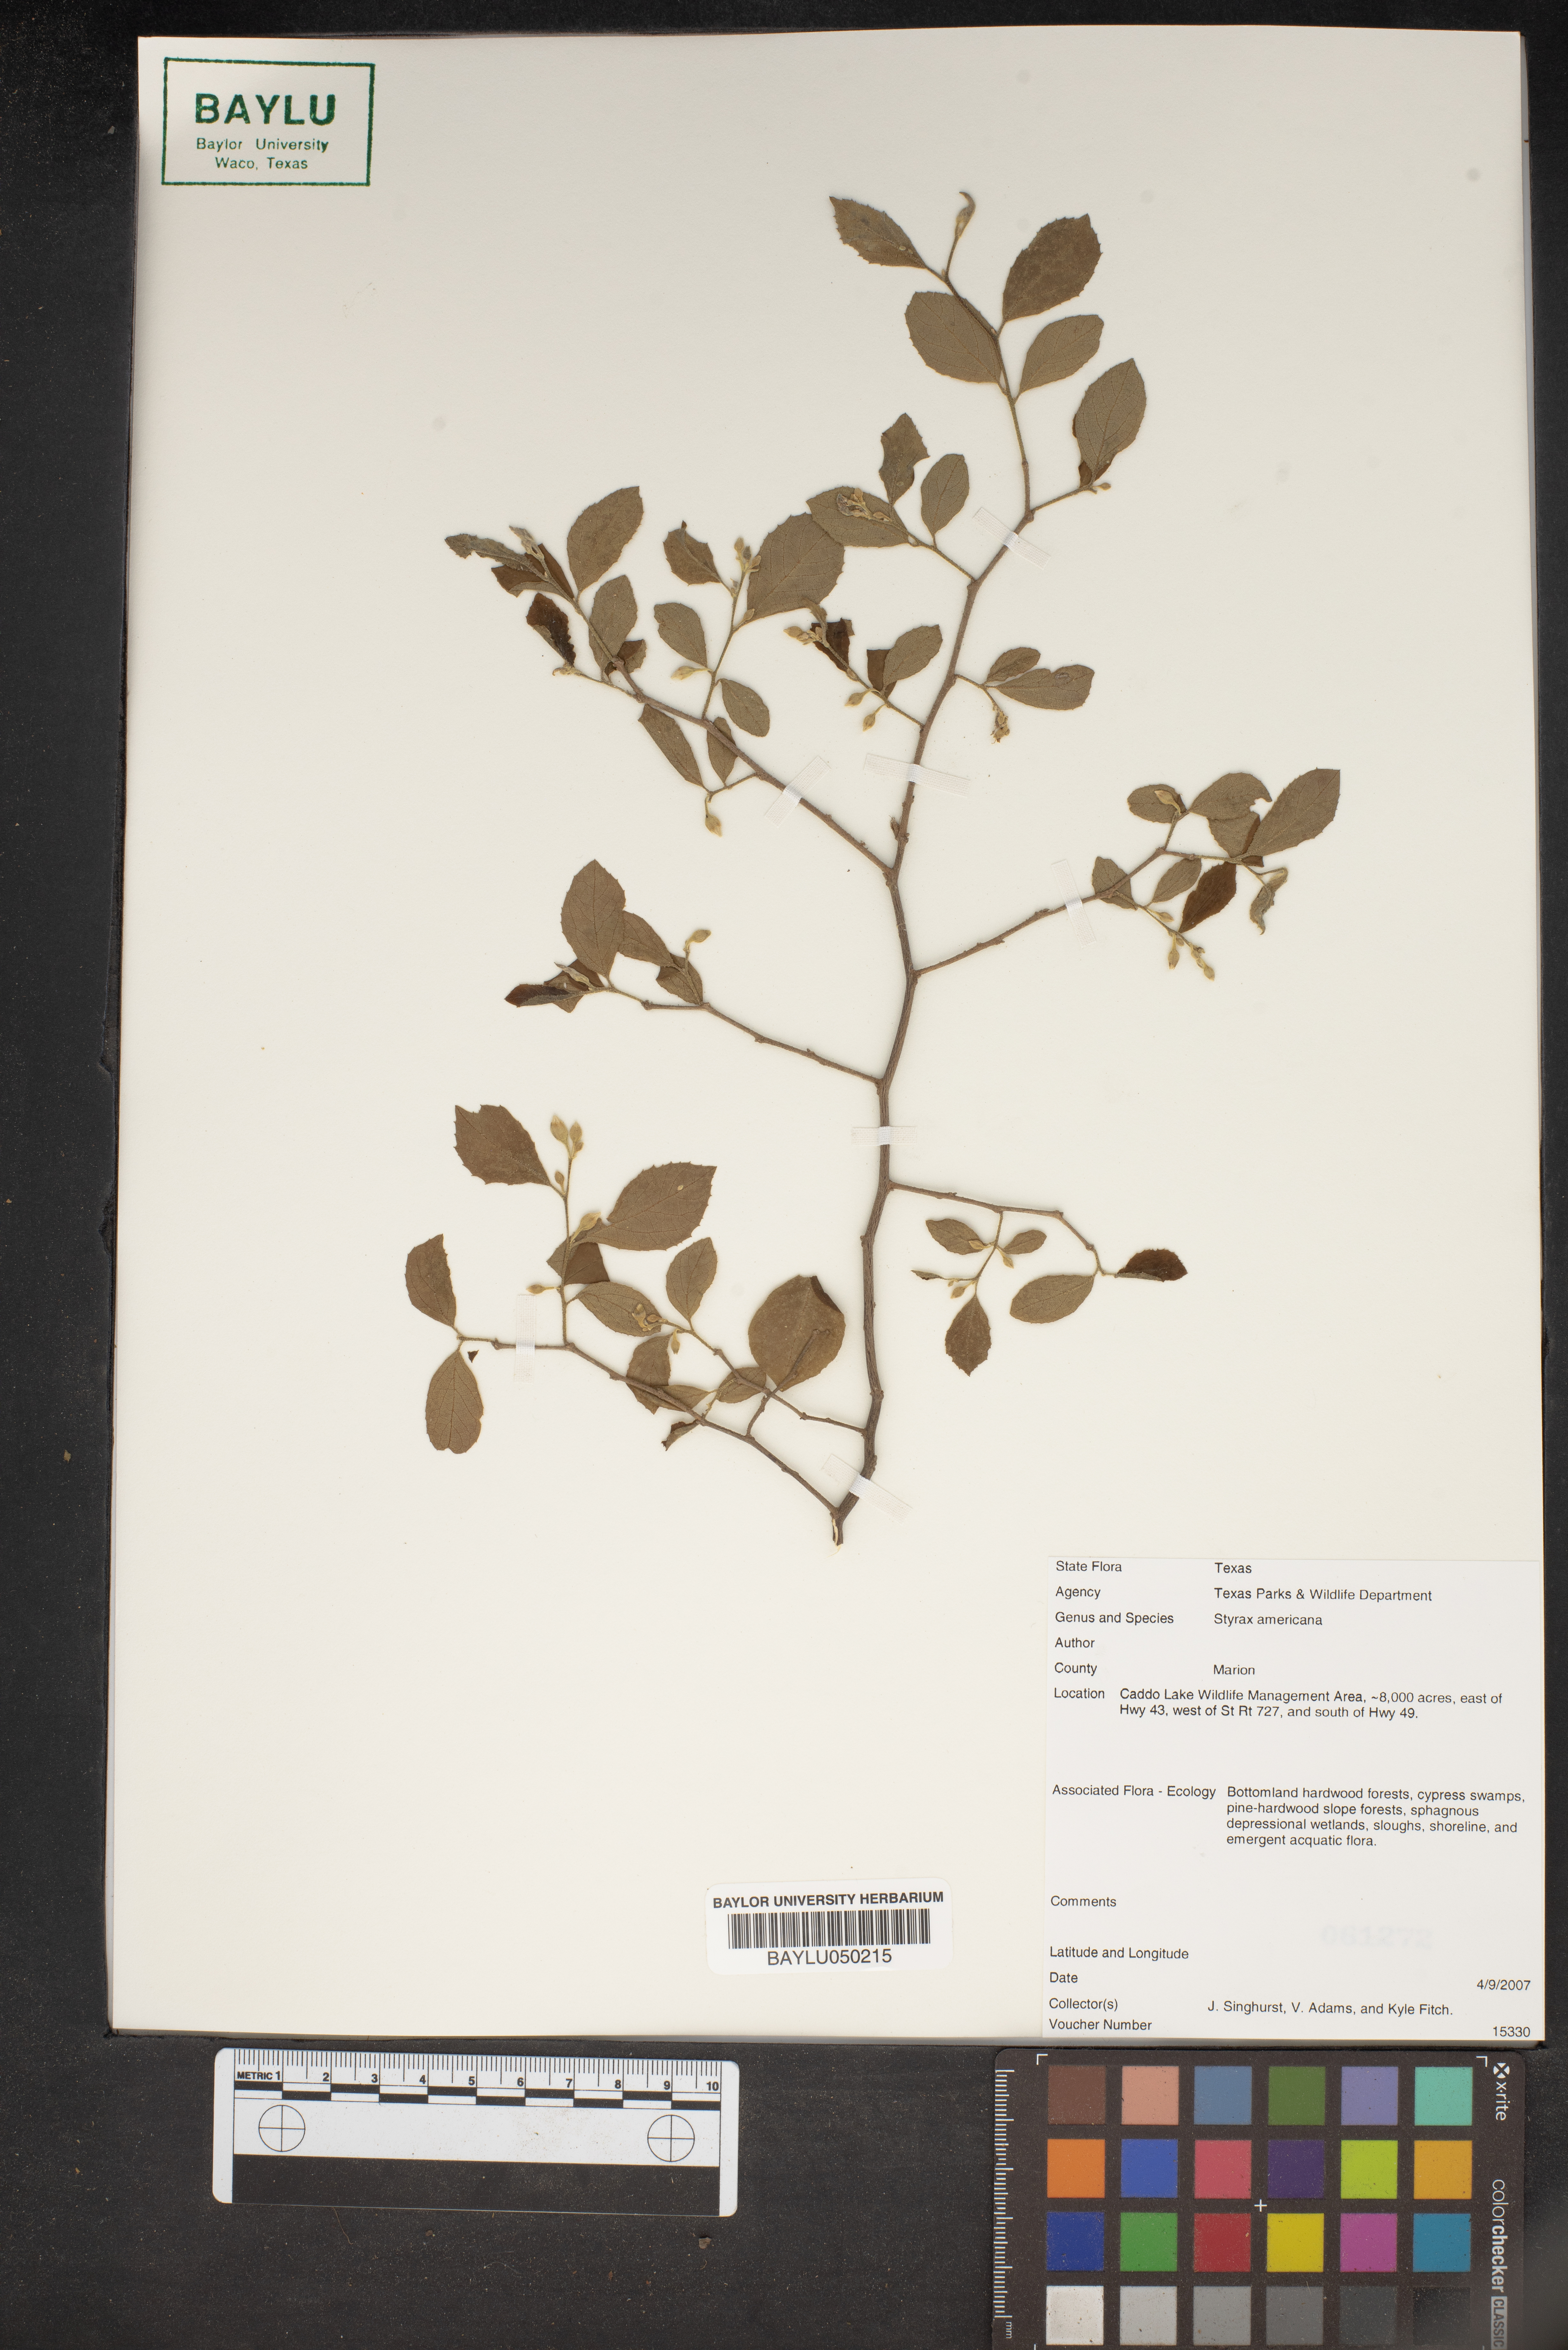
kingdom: Plantae
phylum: Tracheophyta
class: Magnoliopsida
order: Ericales
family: Styracaceae
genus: Styrax
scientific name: Styrax americanus
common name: American snowbell
